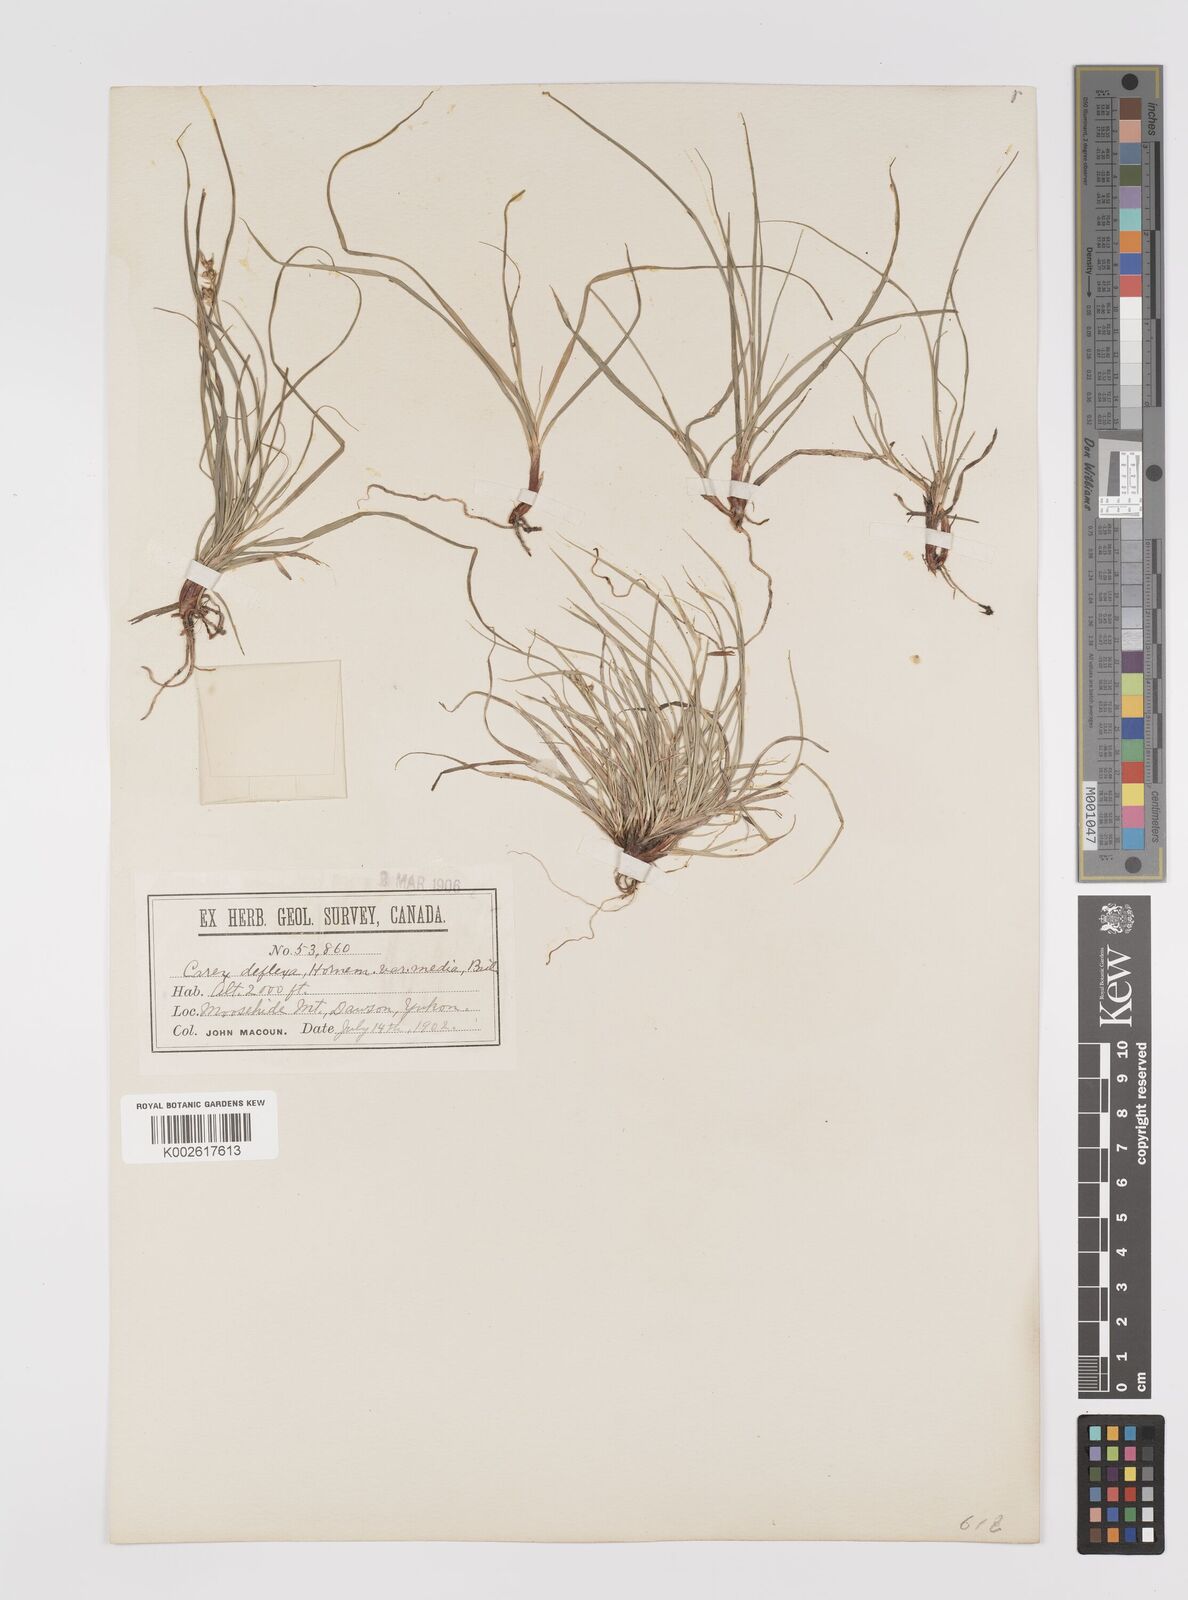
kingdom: Plantae
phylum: Tracheophyta
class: Liliopsida
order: Poales
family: Cyperaceae
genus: Carex
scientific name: Carex rossii
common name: Ross' sedge
